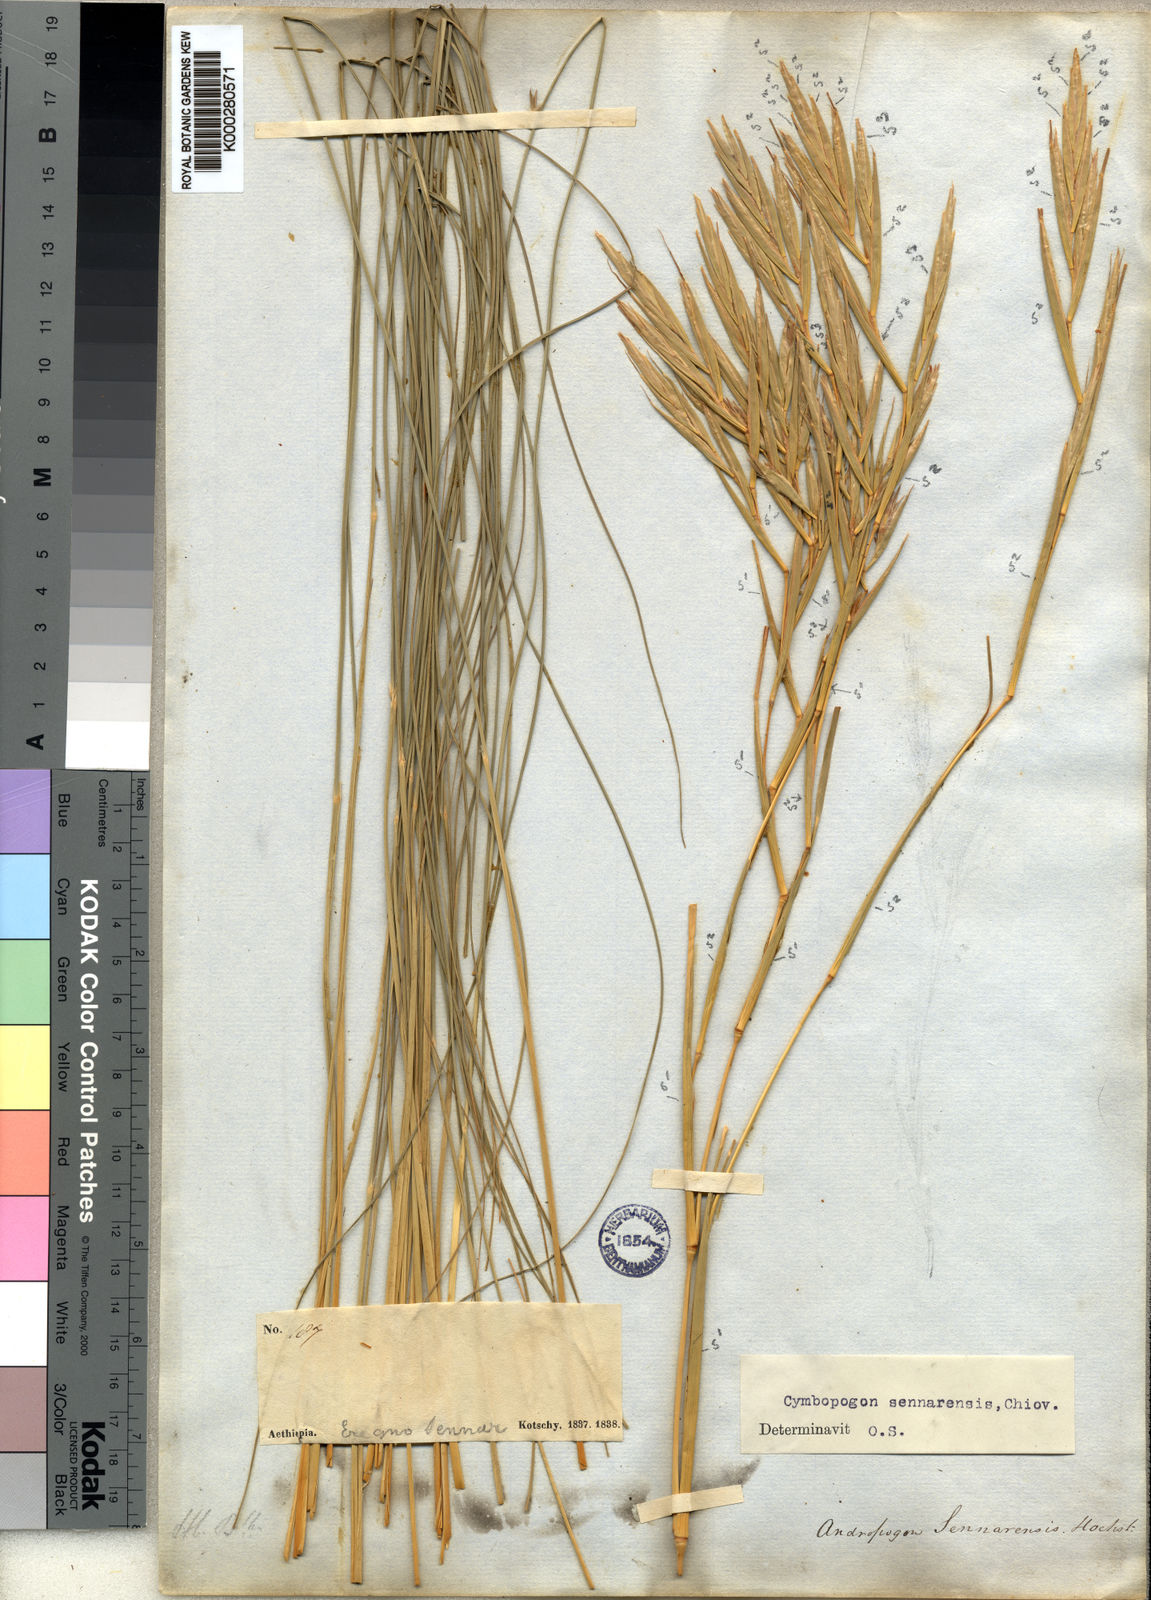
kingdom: Plantae
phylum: Tracheophyta
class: Liliopsida
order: Poales
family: Poaceae
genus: Cymbopogon
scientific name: Cymbopogon schoenanthus
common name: Geranium grass
